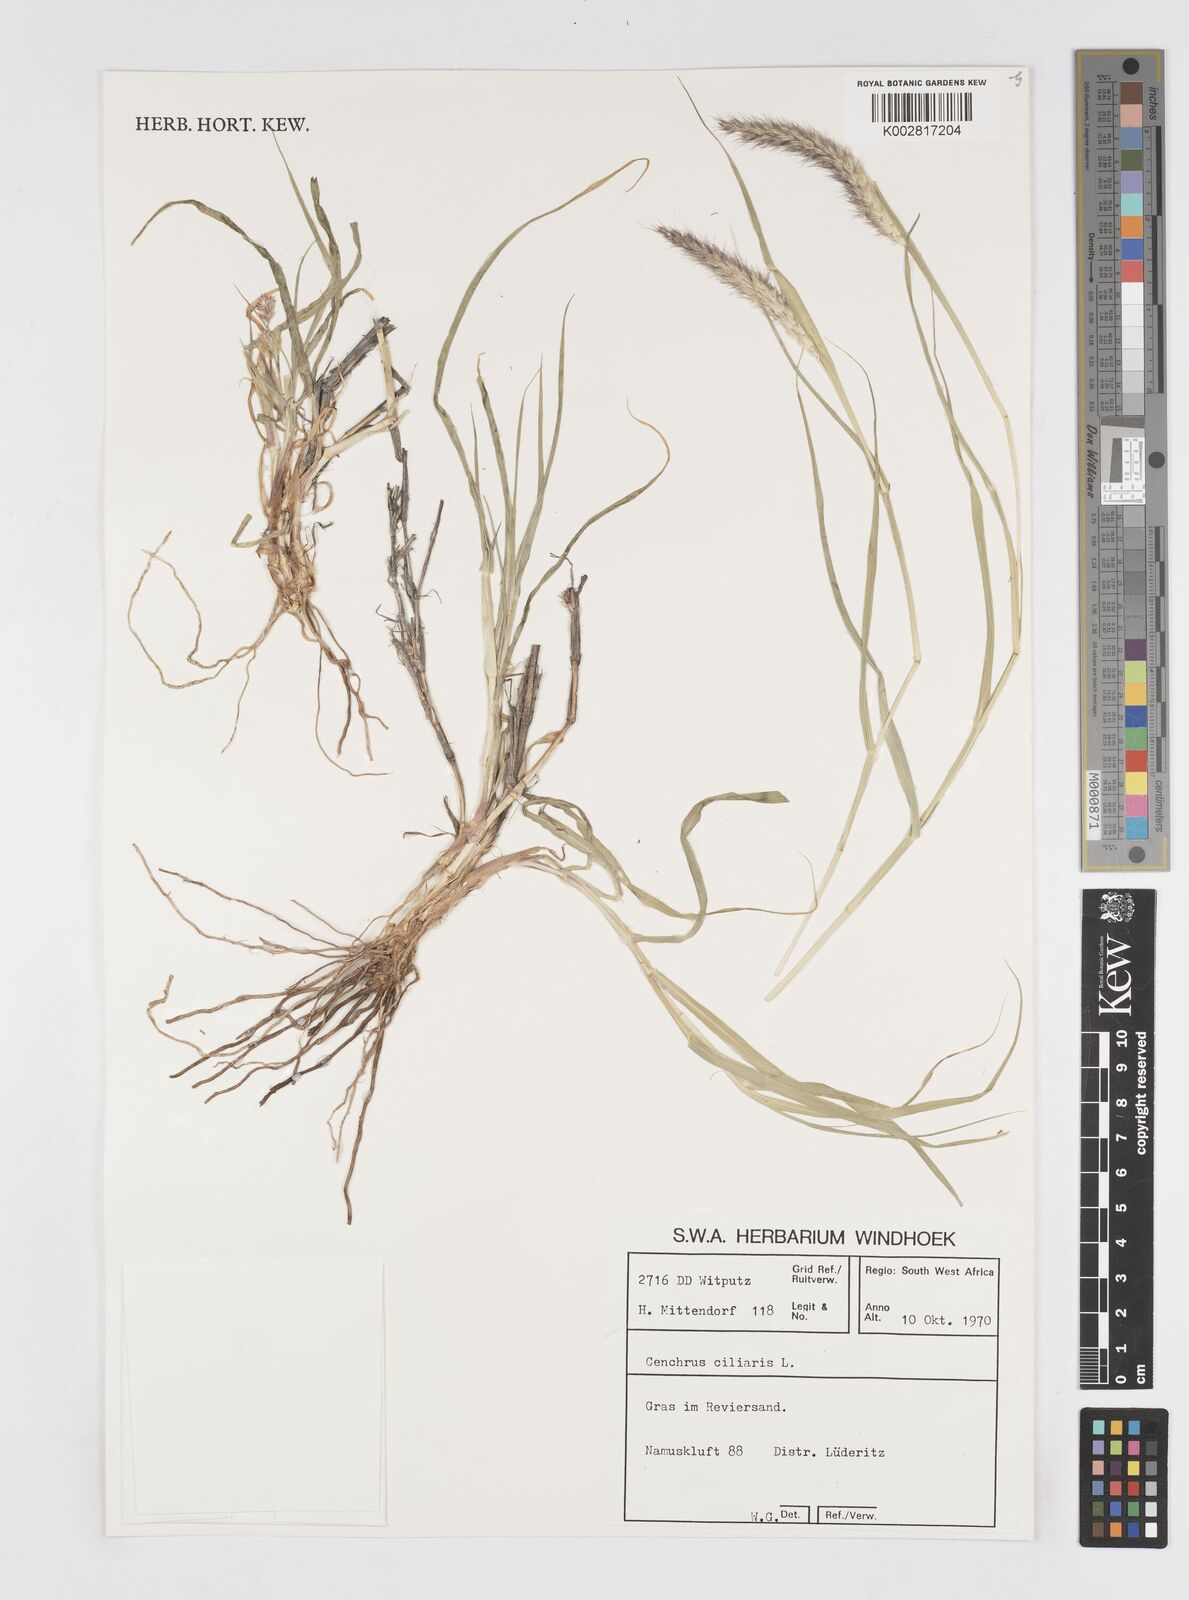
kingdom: Plantae
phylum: Tracheophyta
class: Liliopsida
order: Poales
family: Poaceae
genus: Cenchrus
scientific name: Cenchrus ciliaris
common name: Buffelgrass
